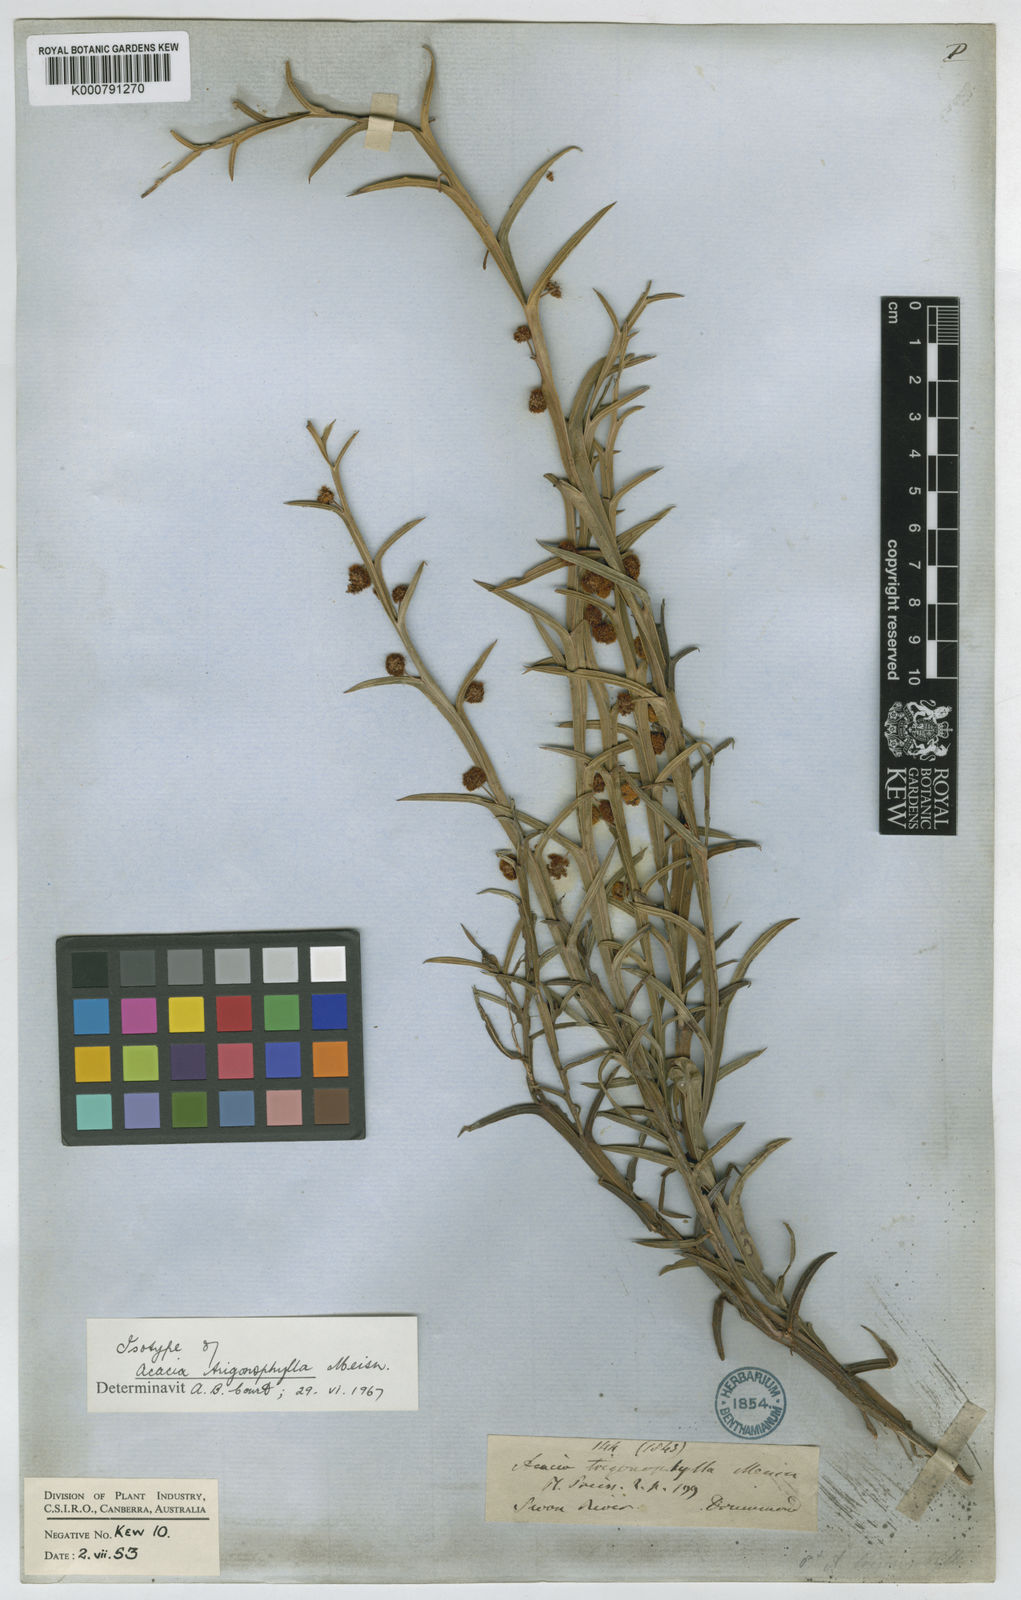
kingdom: Plantae
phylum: Tracheophyta
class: Magnoliopsida
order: Fabales
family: Fabaceae
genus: Acacia
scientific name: Acacia trigonophylla
